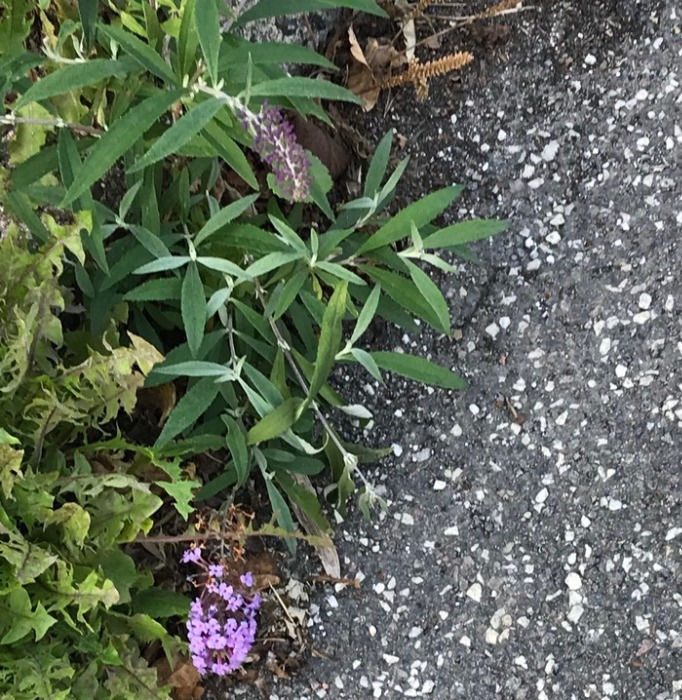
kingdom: Plantae
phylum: Tracheophyta
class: Magnoliopsida
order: Lamiales
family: Scrophulariaceae
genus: Buddleja
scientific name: Buddleja davidii
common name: Sommerfuglebusk
